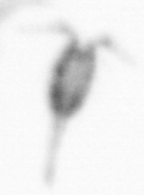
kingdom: Animalia
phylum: Arthropoda
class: Copepoda
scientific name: Copepoda
